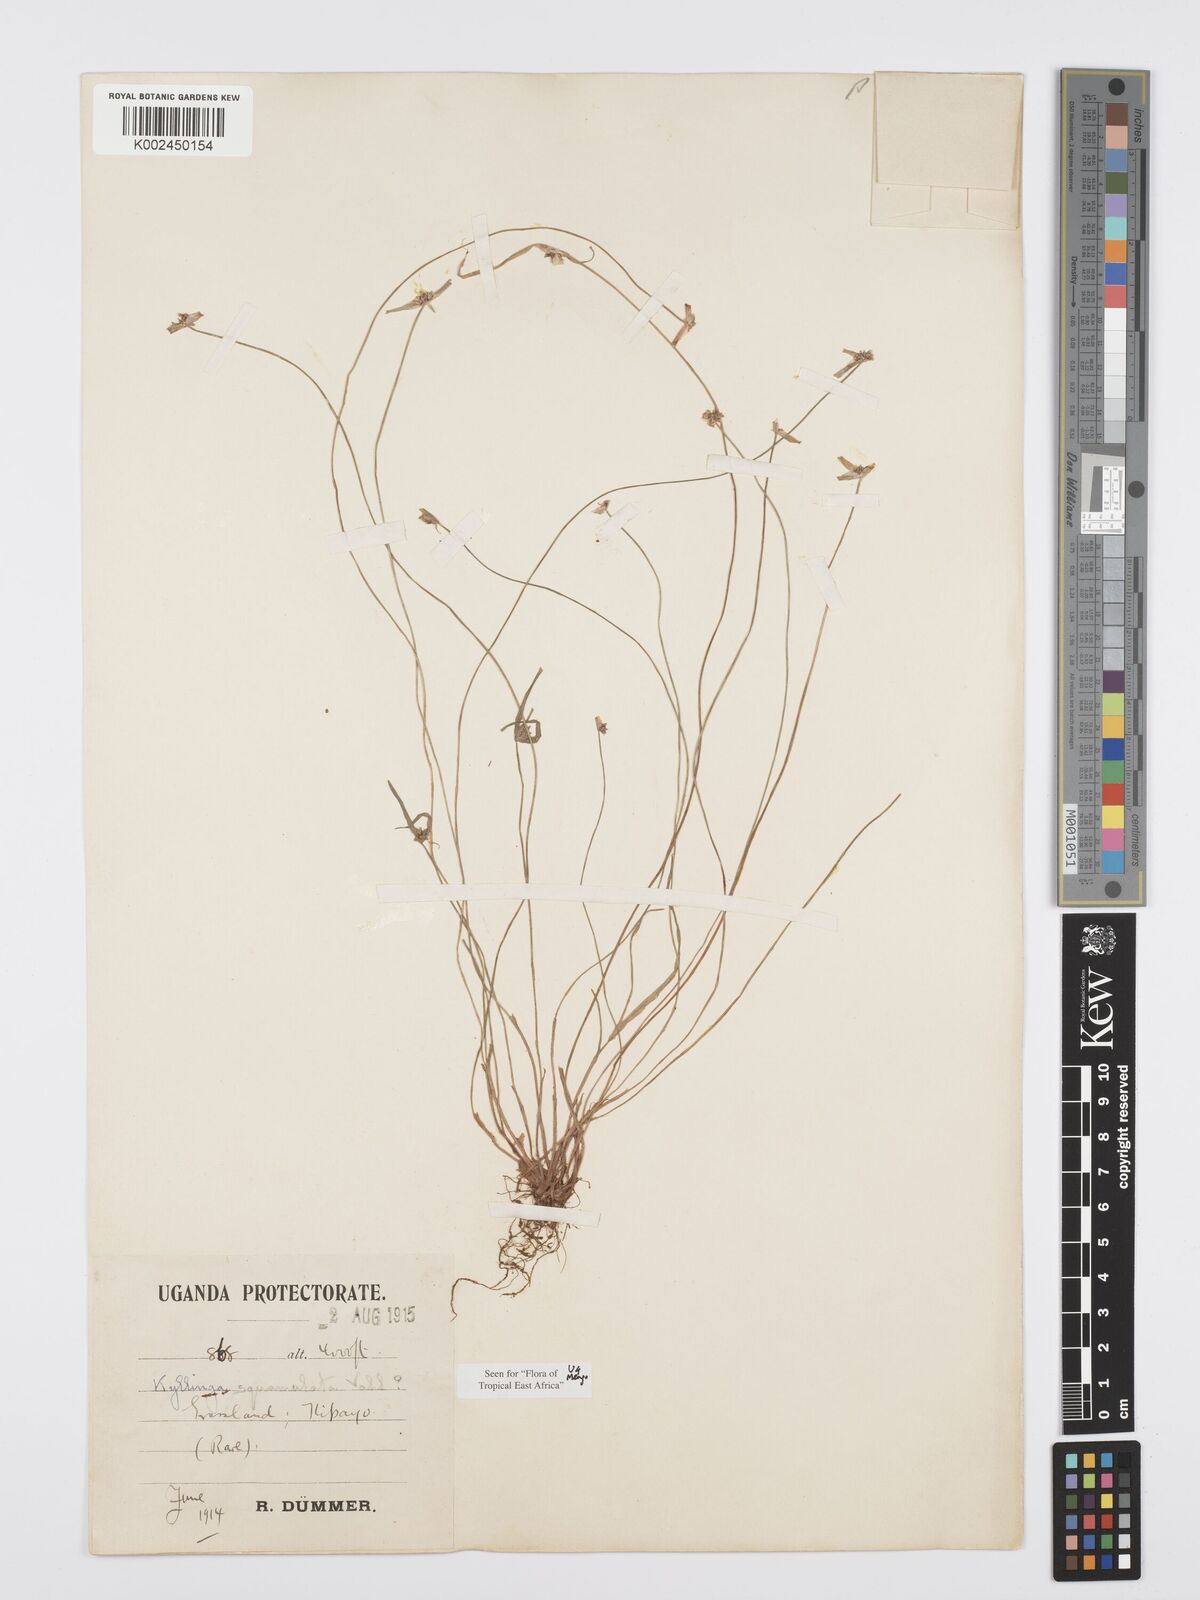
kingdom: Plantae
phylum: Tracheophyta
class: Liliopsida
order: Poales
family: Cyperaceae
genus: Cyperus
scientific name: Cyperus distans
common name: Slender cyperus
